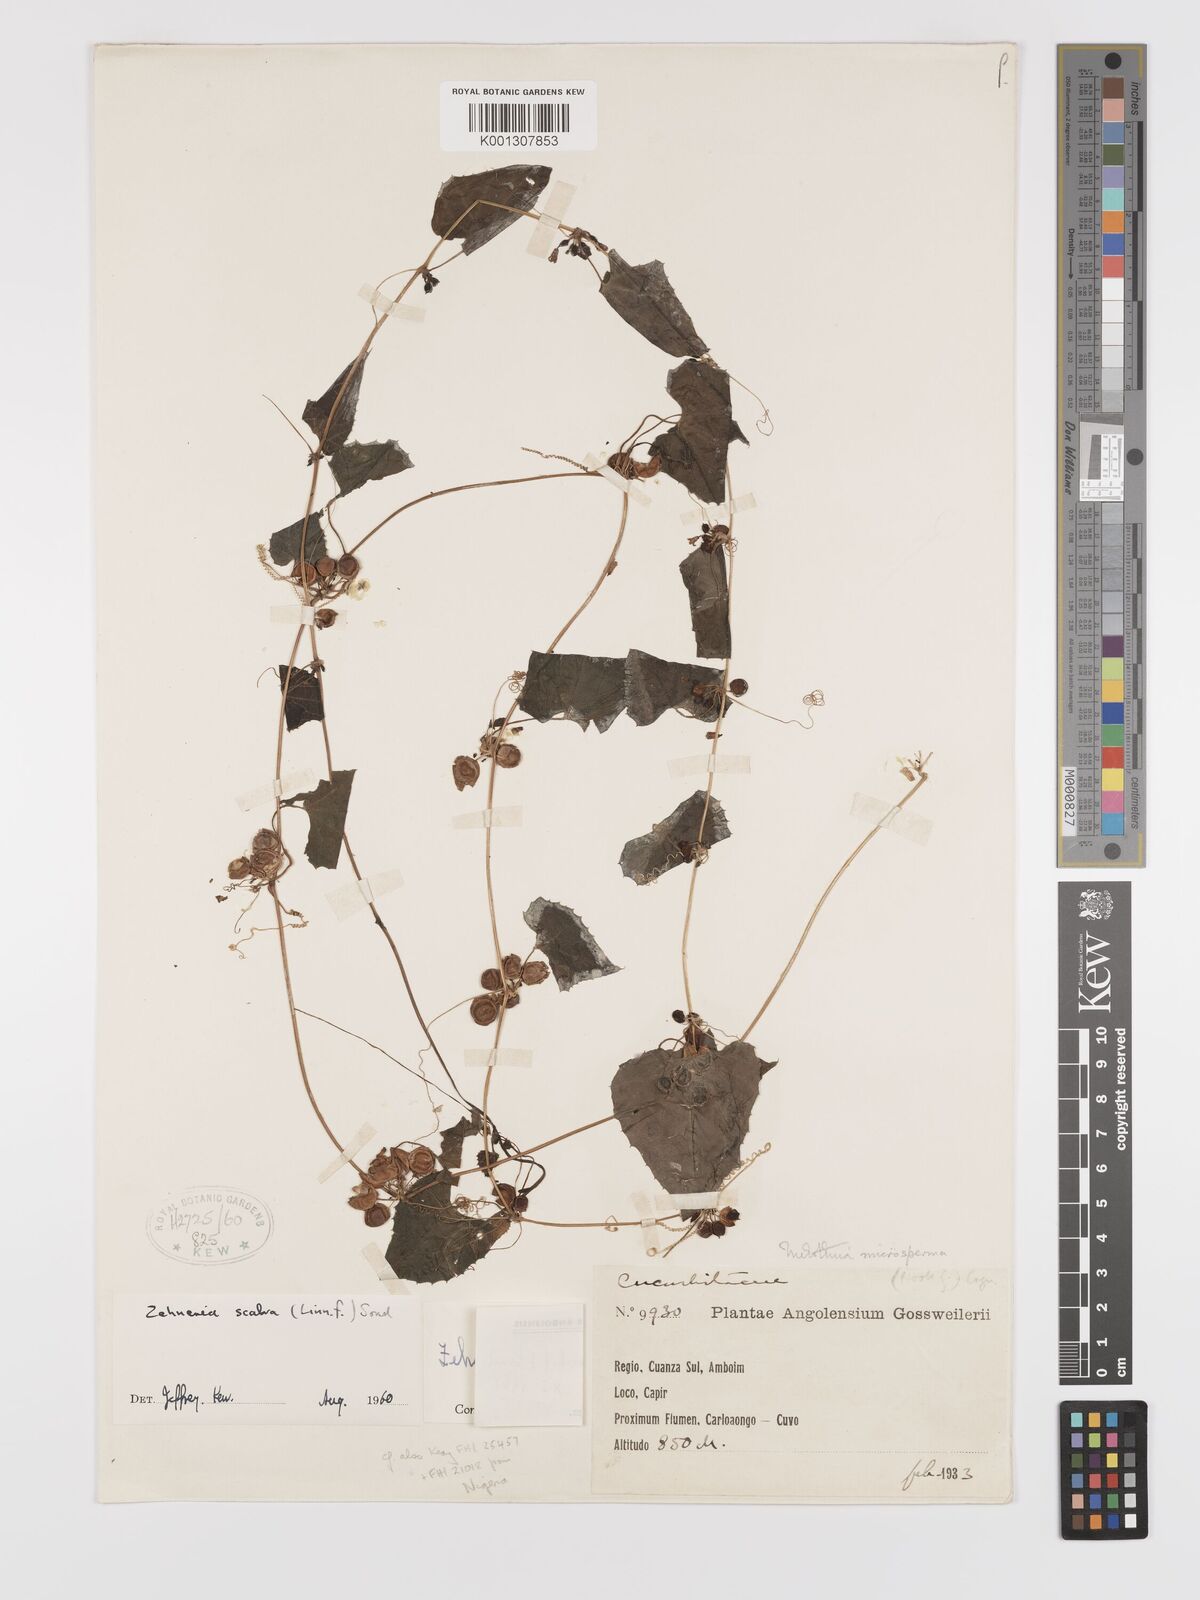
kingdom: Plantae
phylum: Tracheophyta
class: Magnoliopsida
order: Cucurbitales
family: Cucurbitaceae
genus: Zehneria
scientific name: Zehneria scabra
